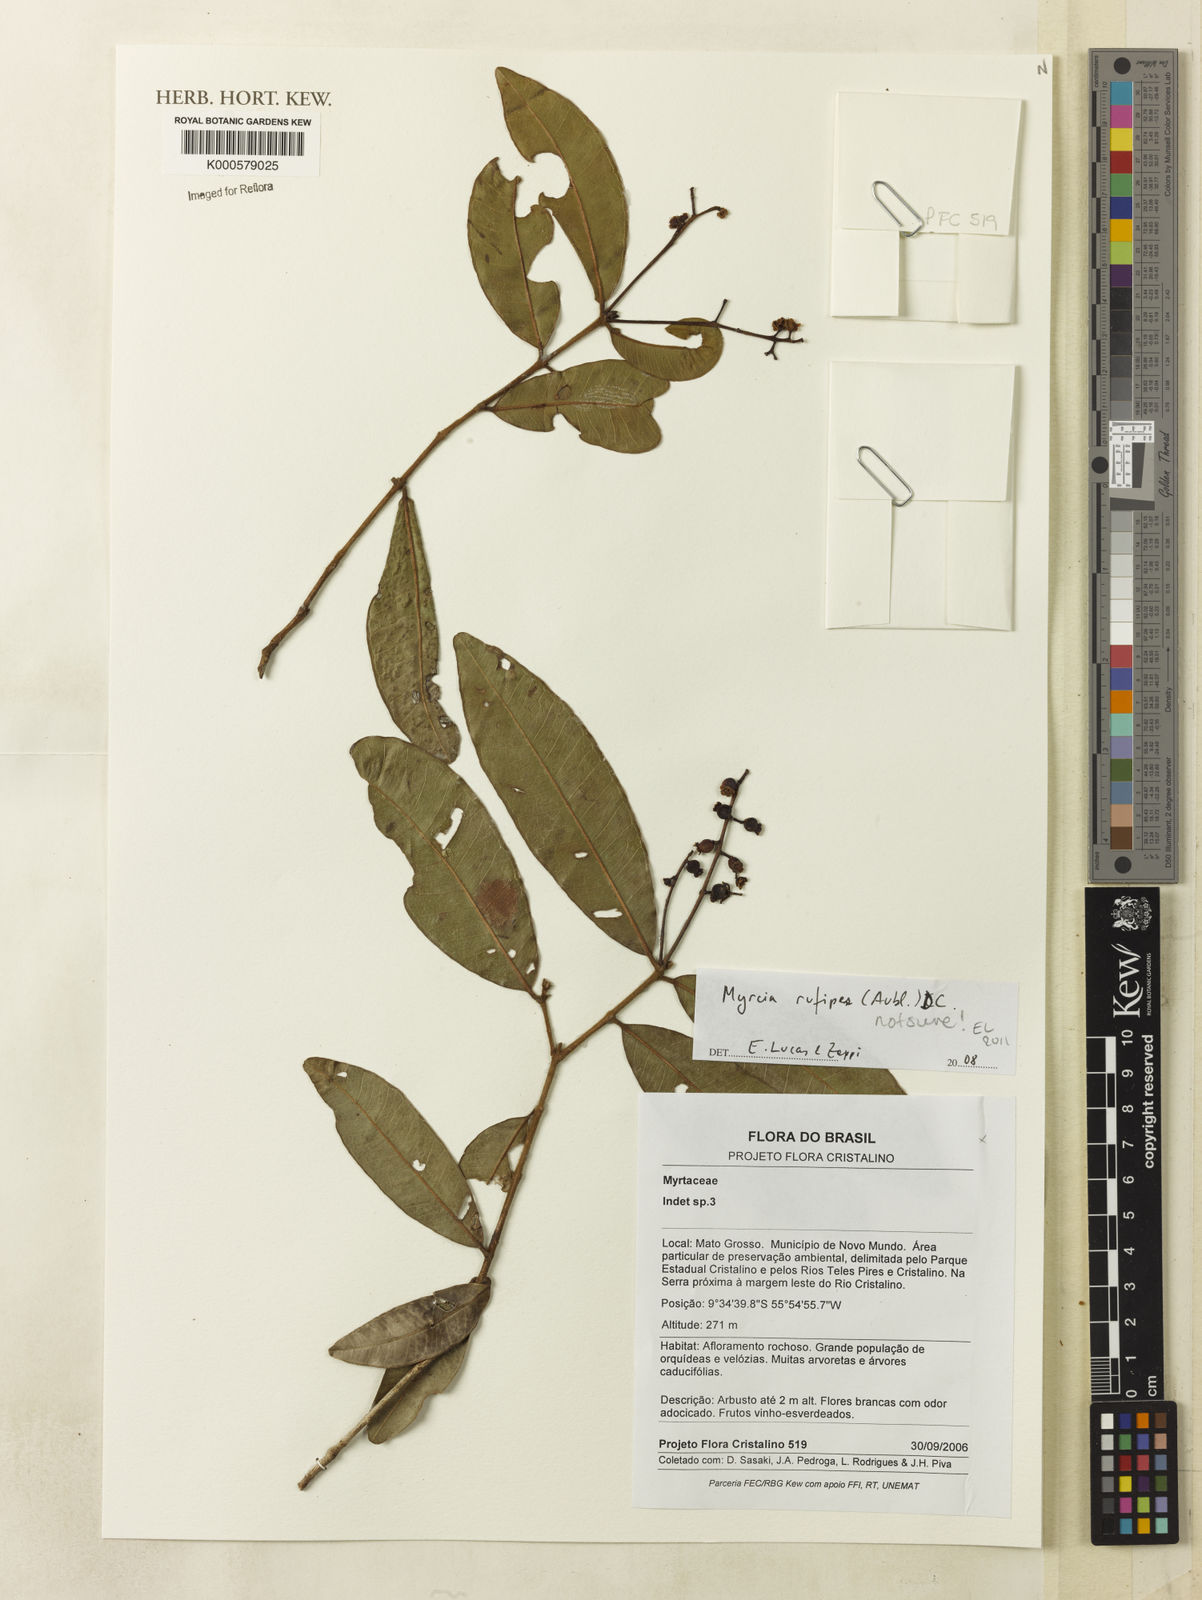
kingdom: Plantae
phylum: Tracheophyta
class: Magnoliopsida
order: Myrtales
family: Myrtaceae
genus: Myrcia
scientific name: Myrcia rufipes
